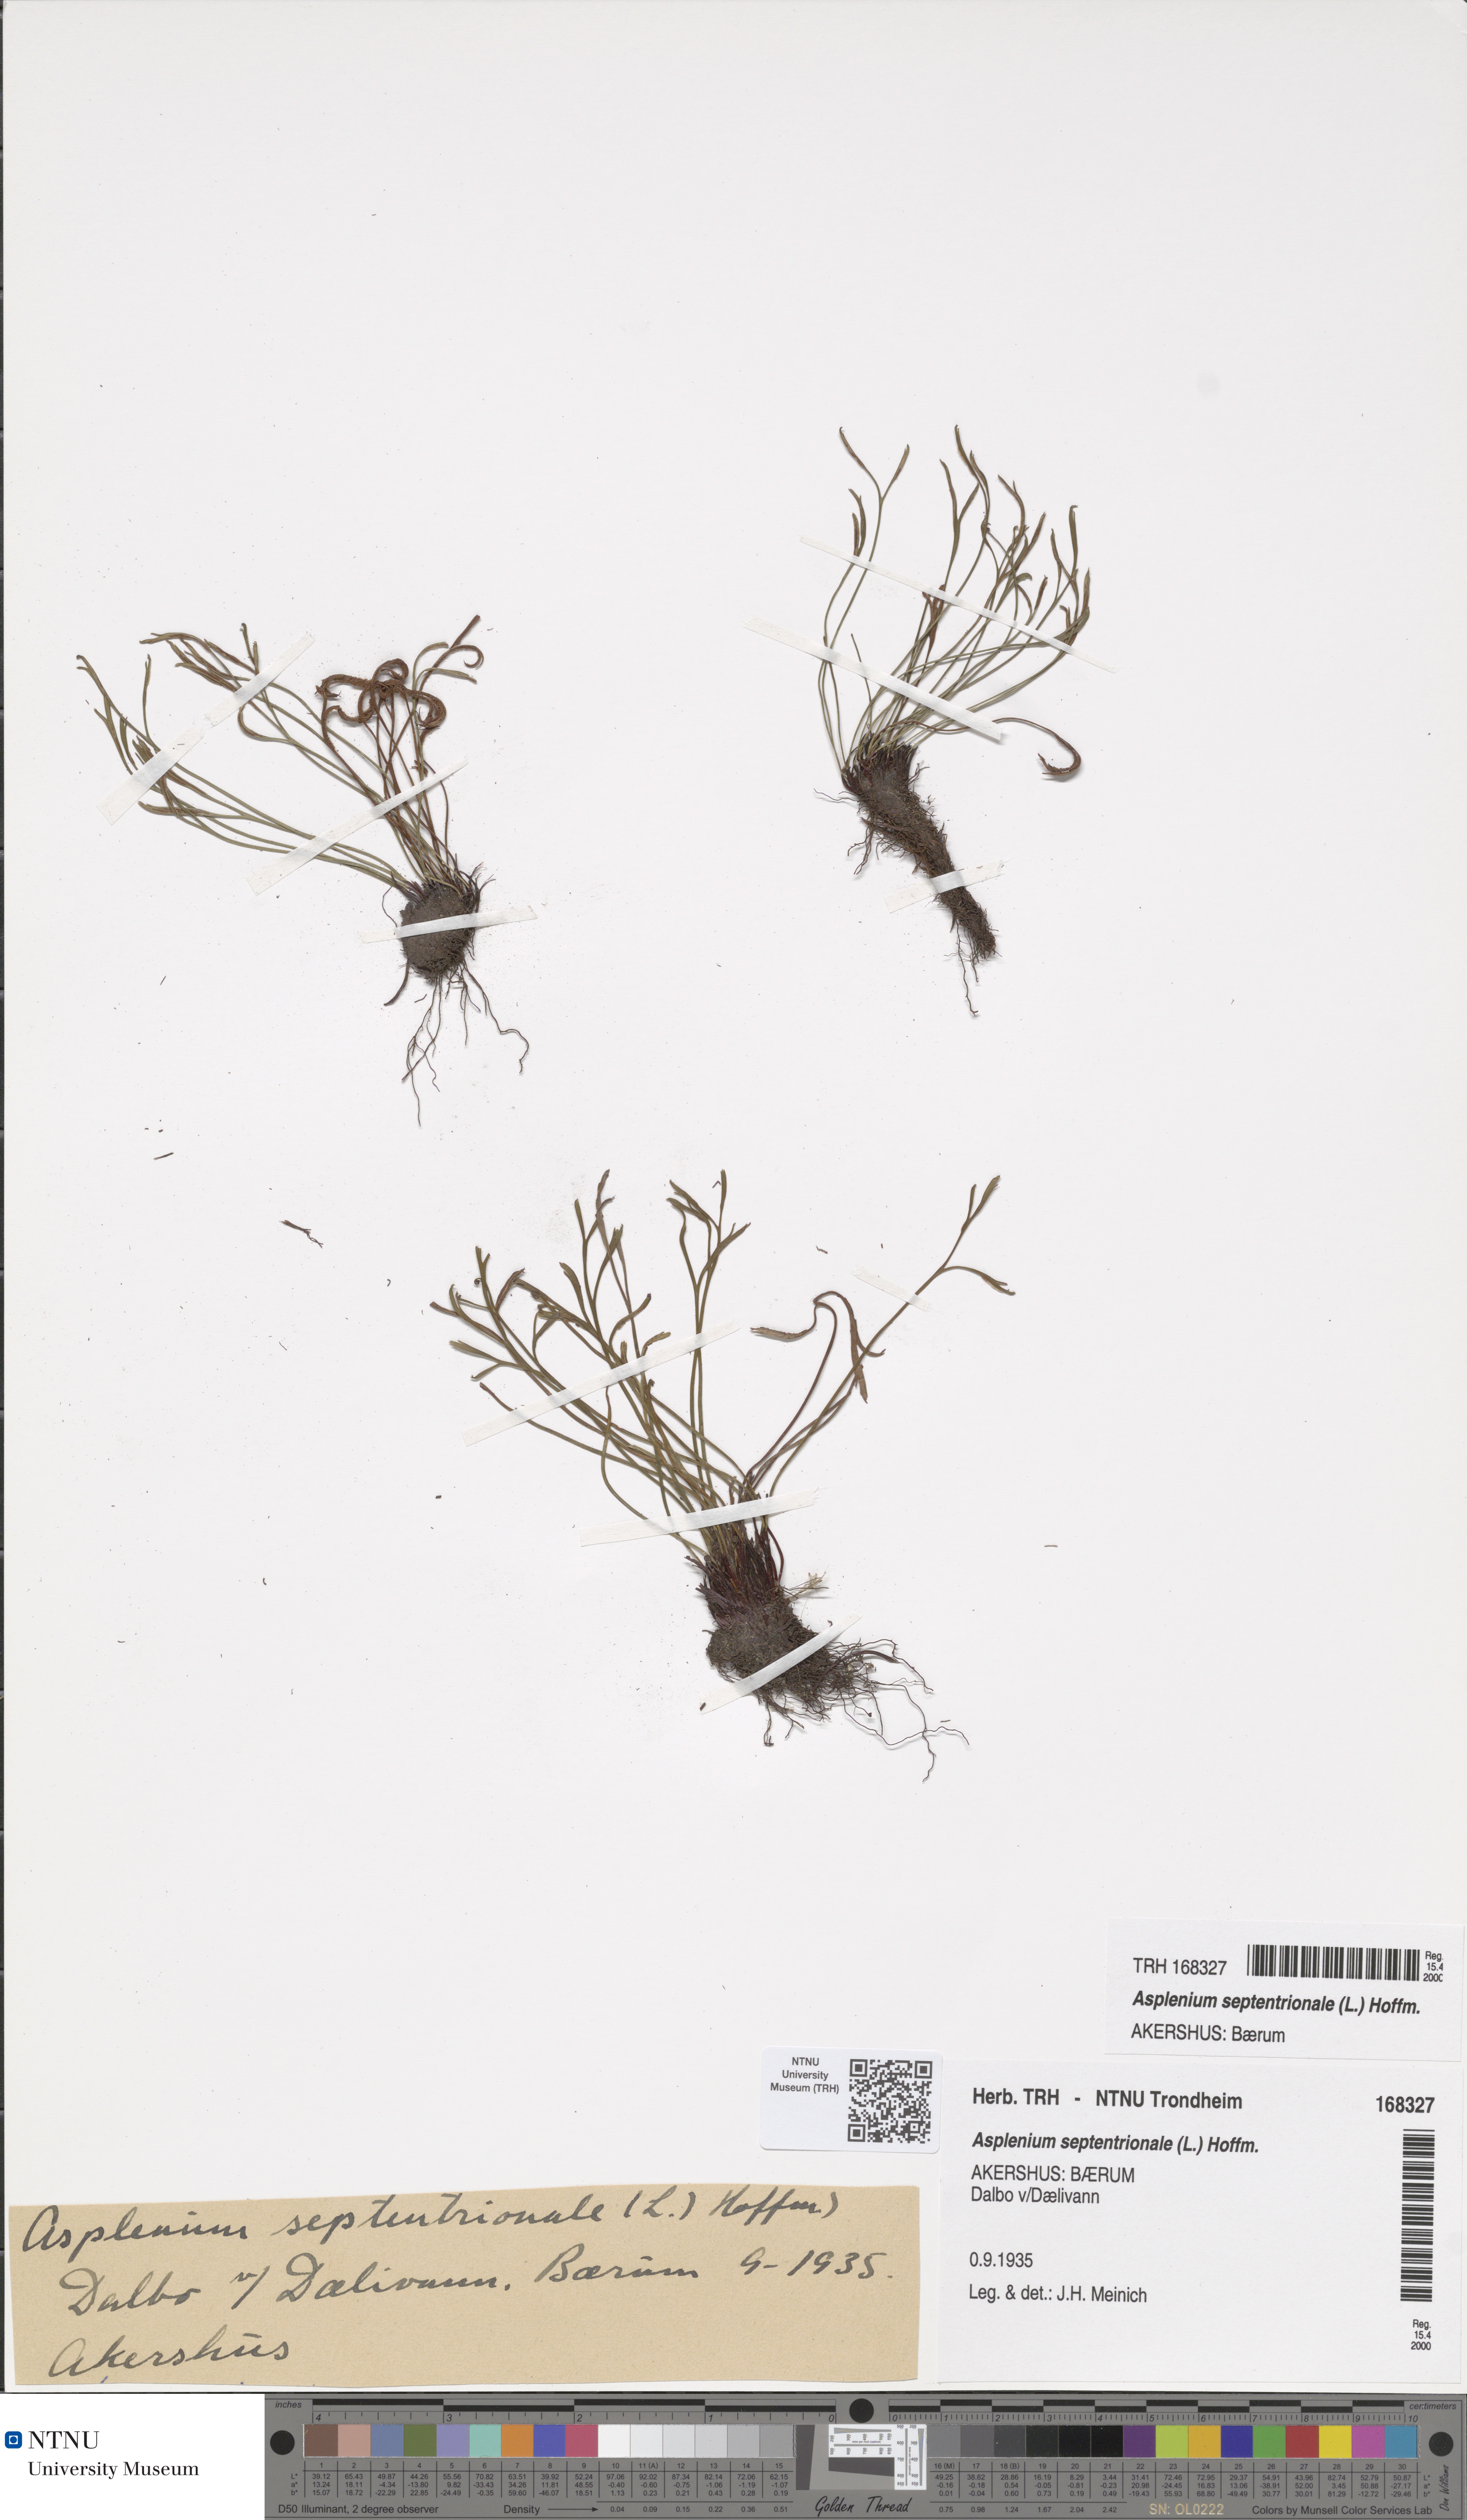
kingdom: Plantae
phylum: Tracheophyta
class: Polypodiopsida
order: Polypodiales
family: Aspleniaceae
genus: Asplenium
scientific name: Asplenium septentrionale
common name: Forked spleenwort
